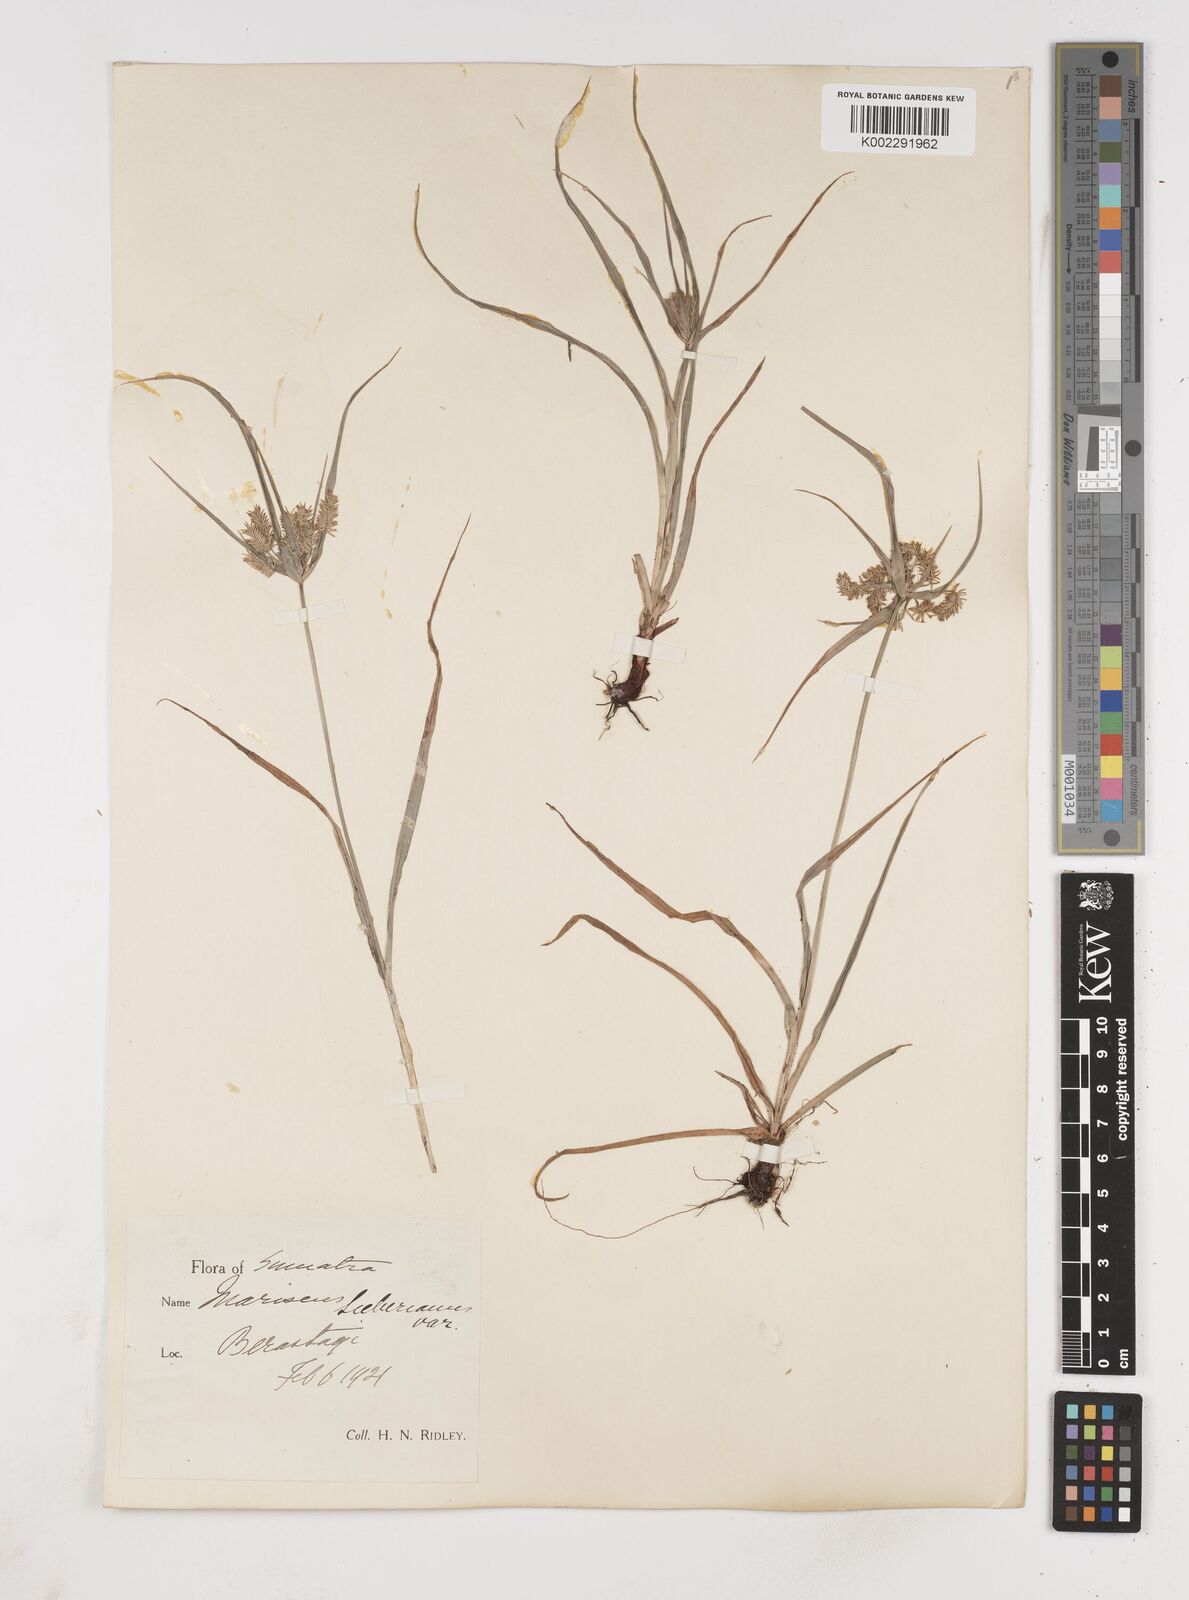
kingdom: Plantae
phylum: Tracheophyta
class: Liliopsida
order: Poales
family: Cyperaceae
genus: Cyperus
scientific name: Cyperus cyperoides
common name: Pacific island flat sedge
